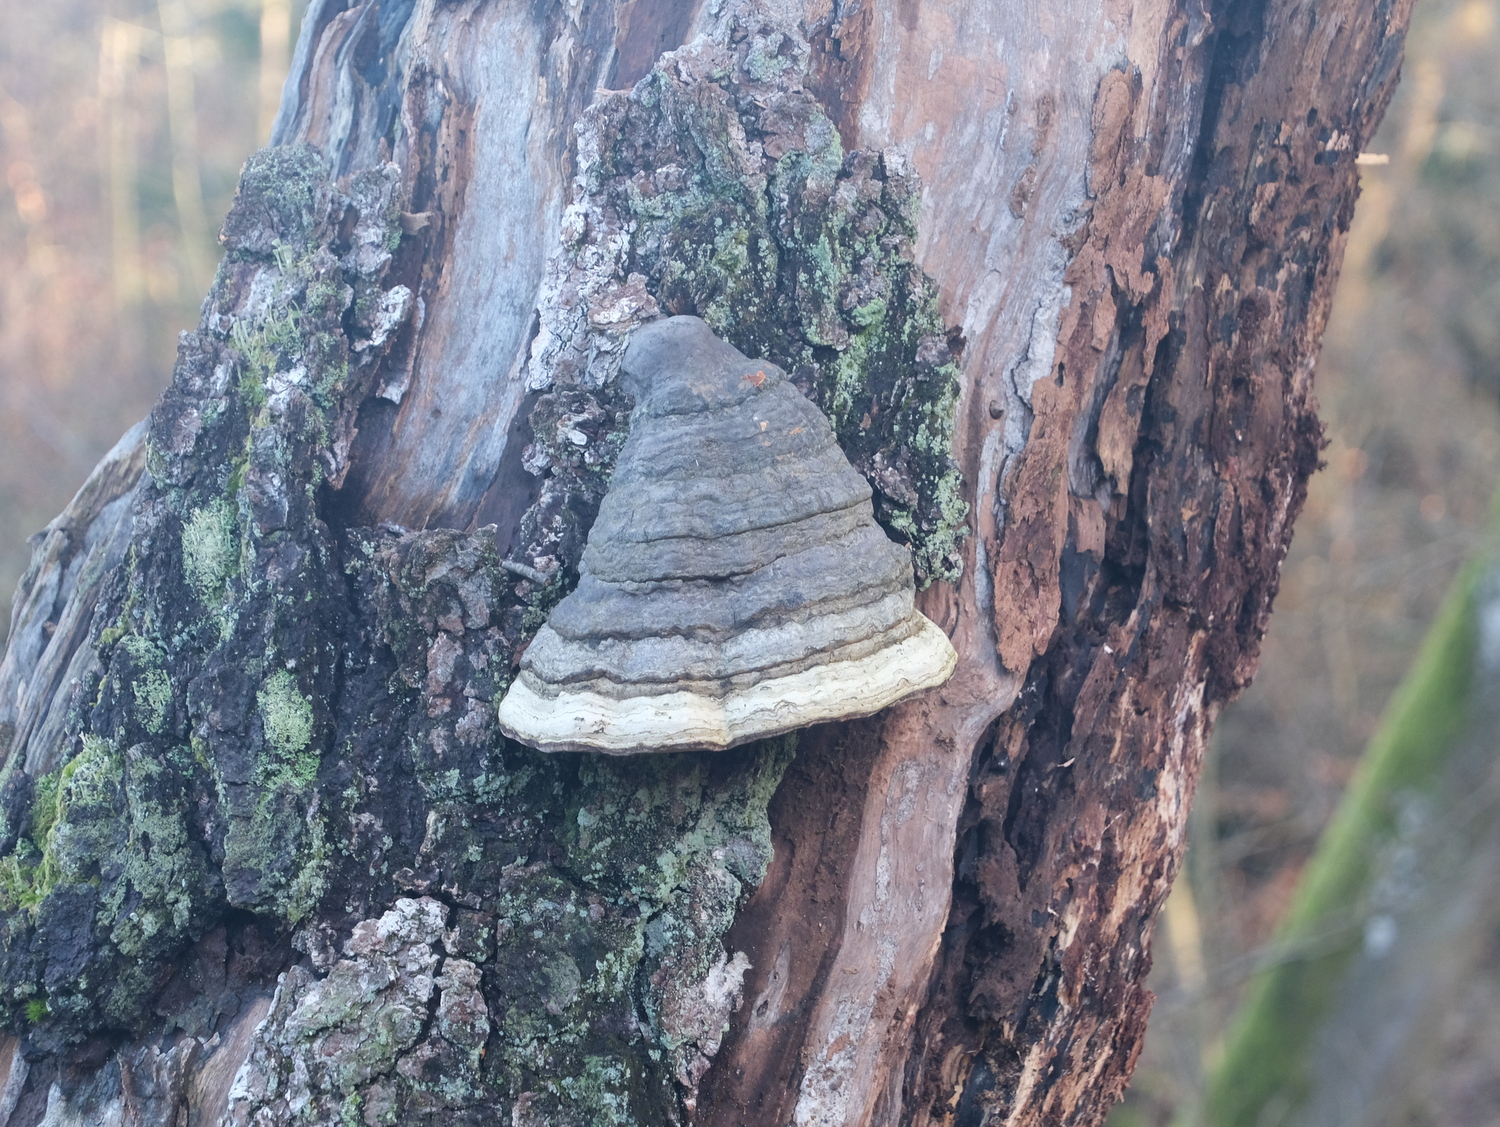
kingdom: Fungi
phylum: Basidiomycota
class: Agaricomycetes
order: Polyporales
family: Polyporaceae
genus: Fomes
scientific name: Fomes fomentarius
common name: tøndersvamp
